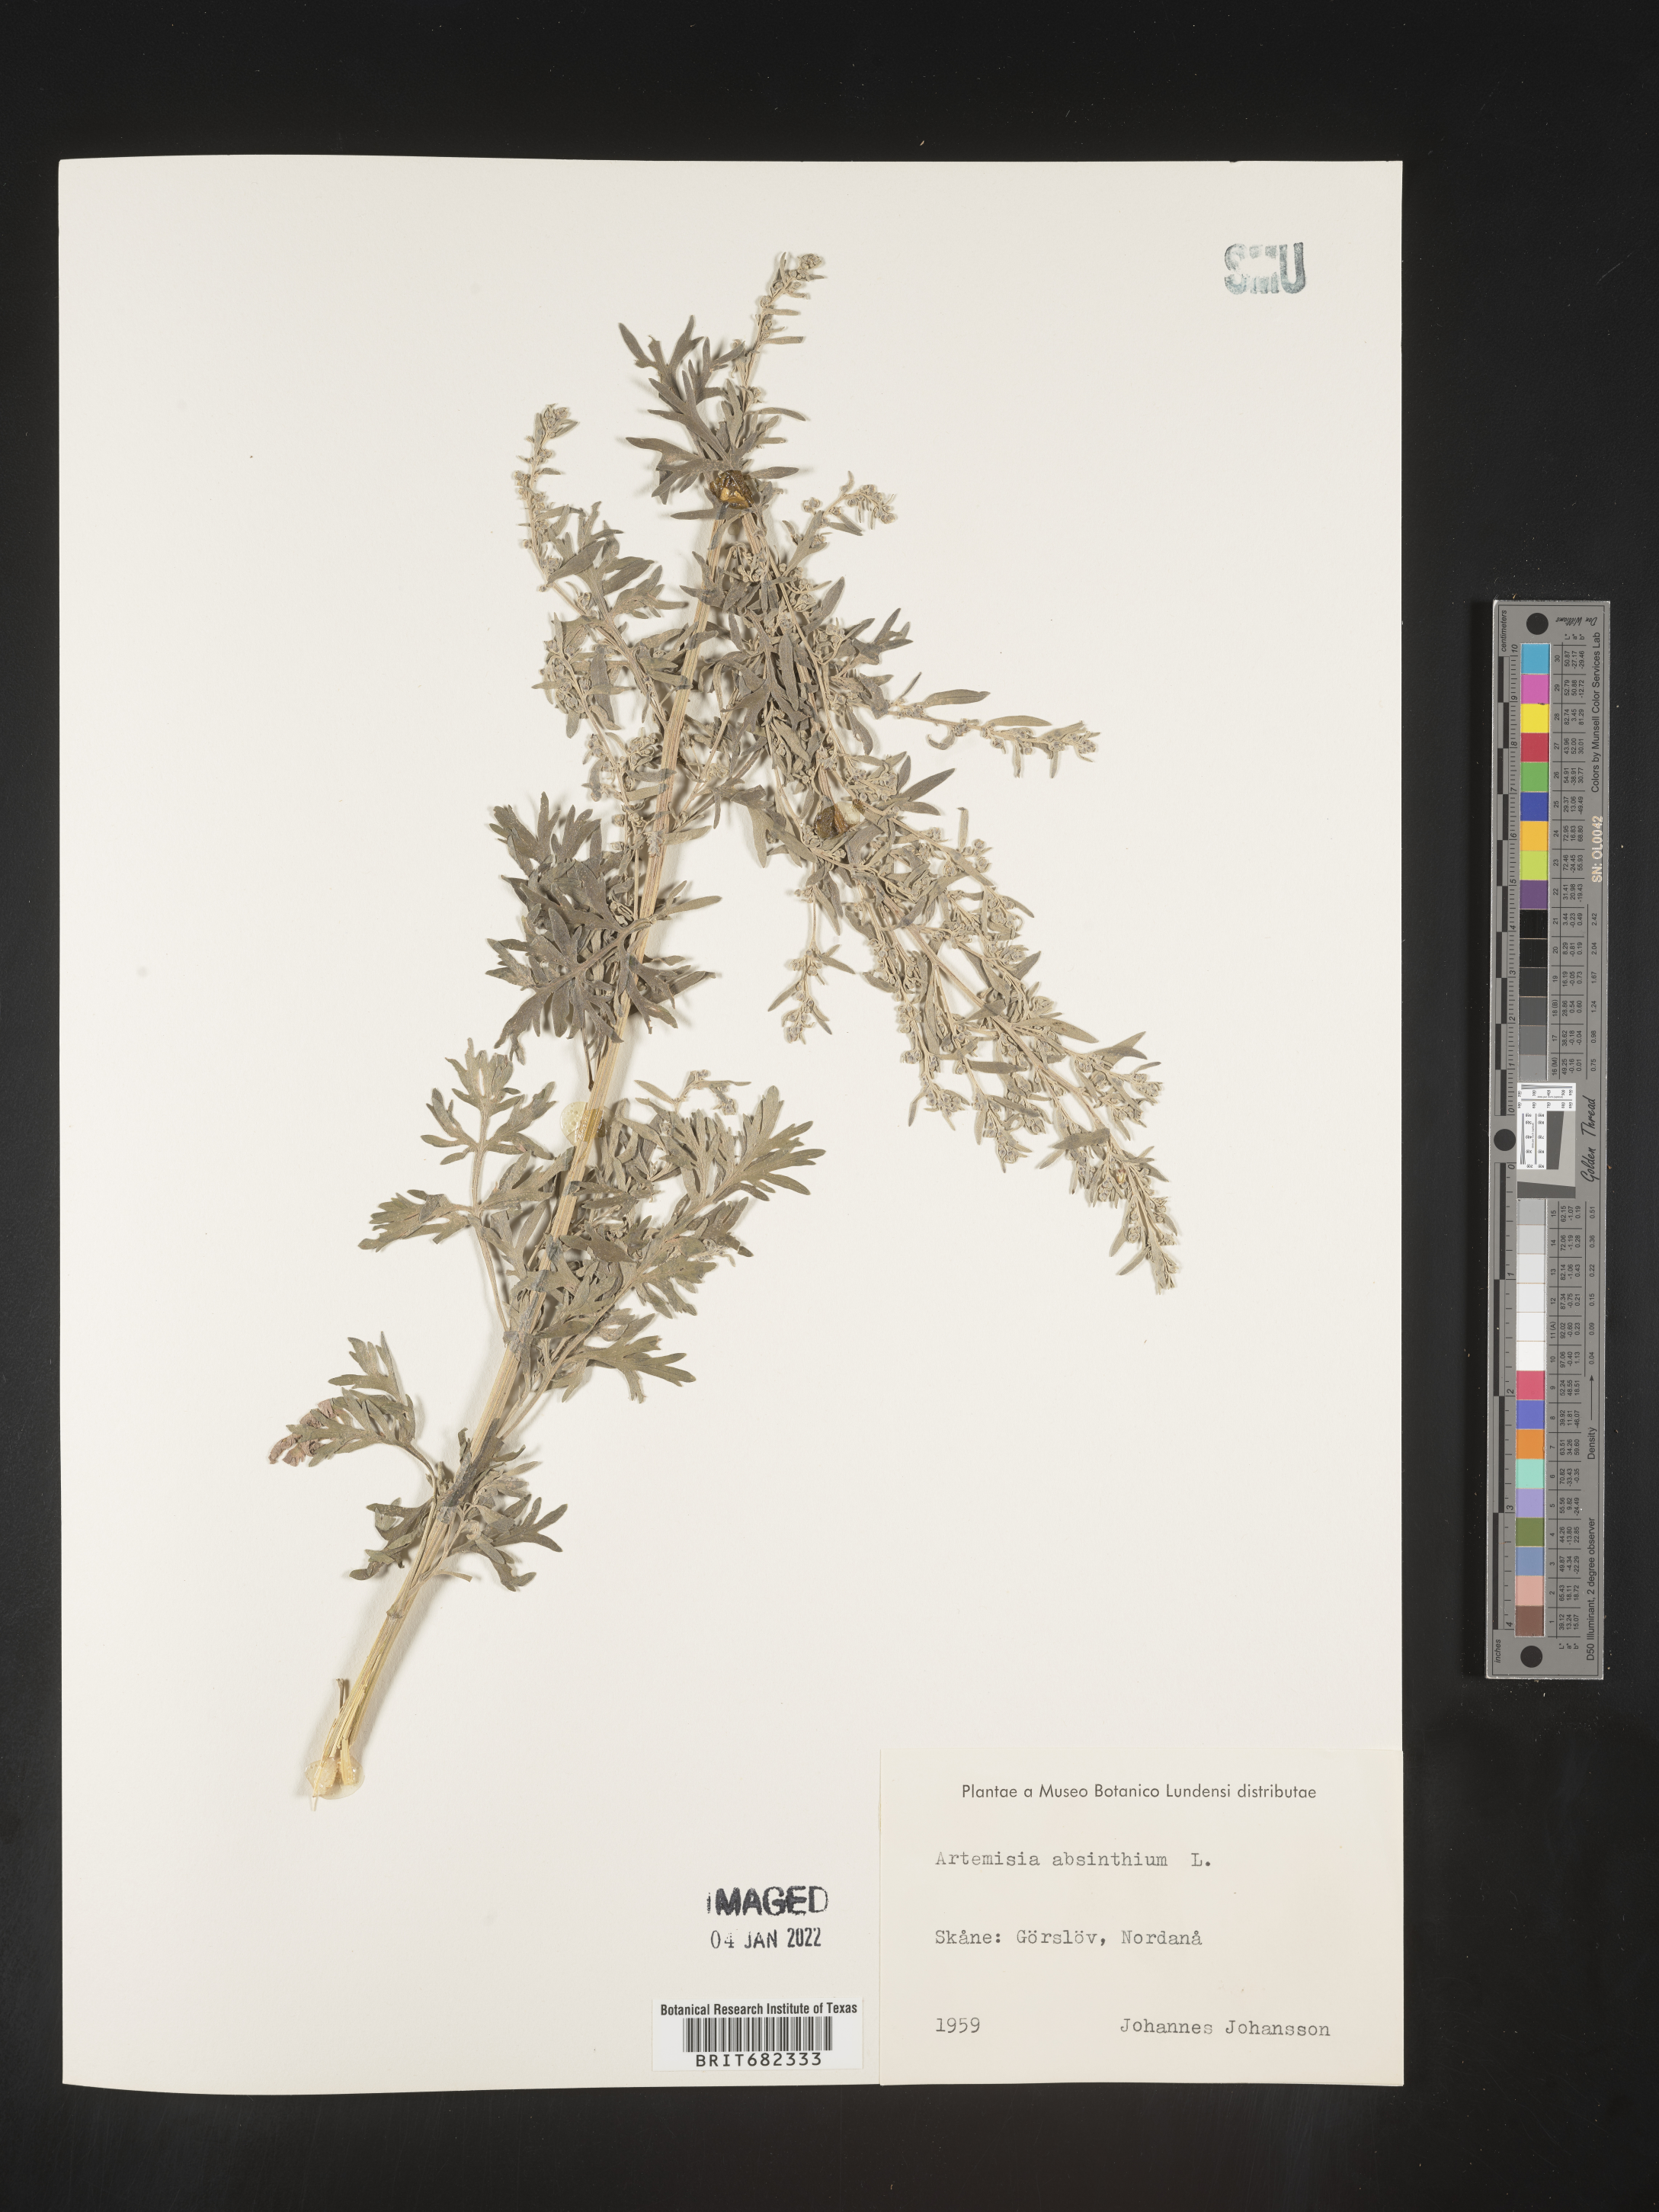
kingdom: Plantae
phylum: Tracheophyta
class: Magnoliopsida
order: Asterales
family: Asteraceae
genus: Artemisia
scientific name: Artemisia
